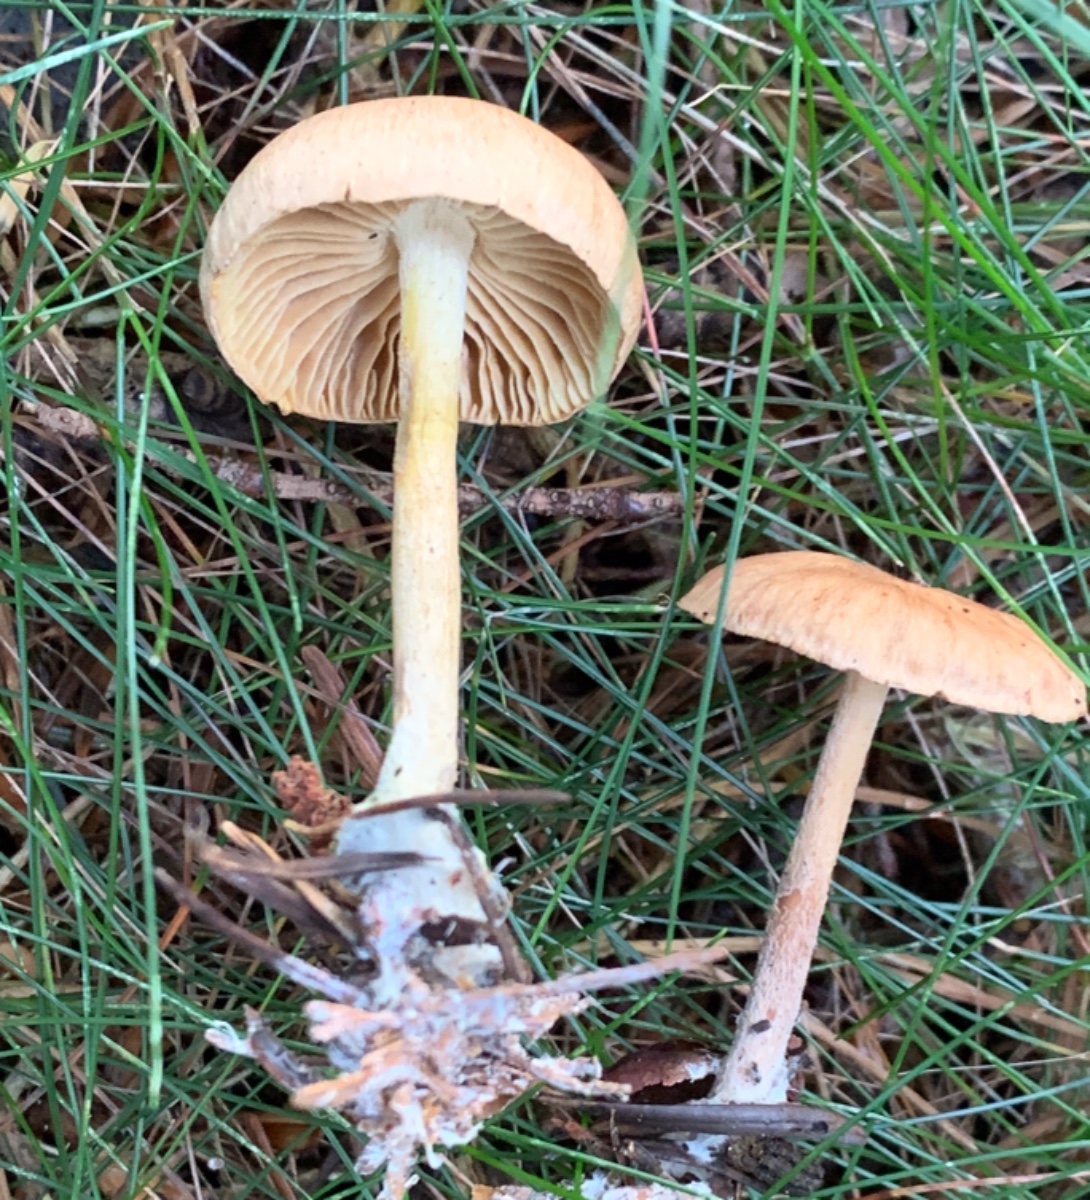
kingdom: Fungi
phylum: Basidiomycota
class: Agaricomycetes
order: Agaricales
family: Omphalotaceae
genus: Collybiopsis
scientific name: Collybiopsis peronata
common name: bestøvlet fladhat
